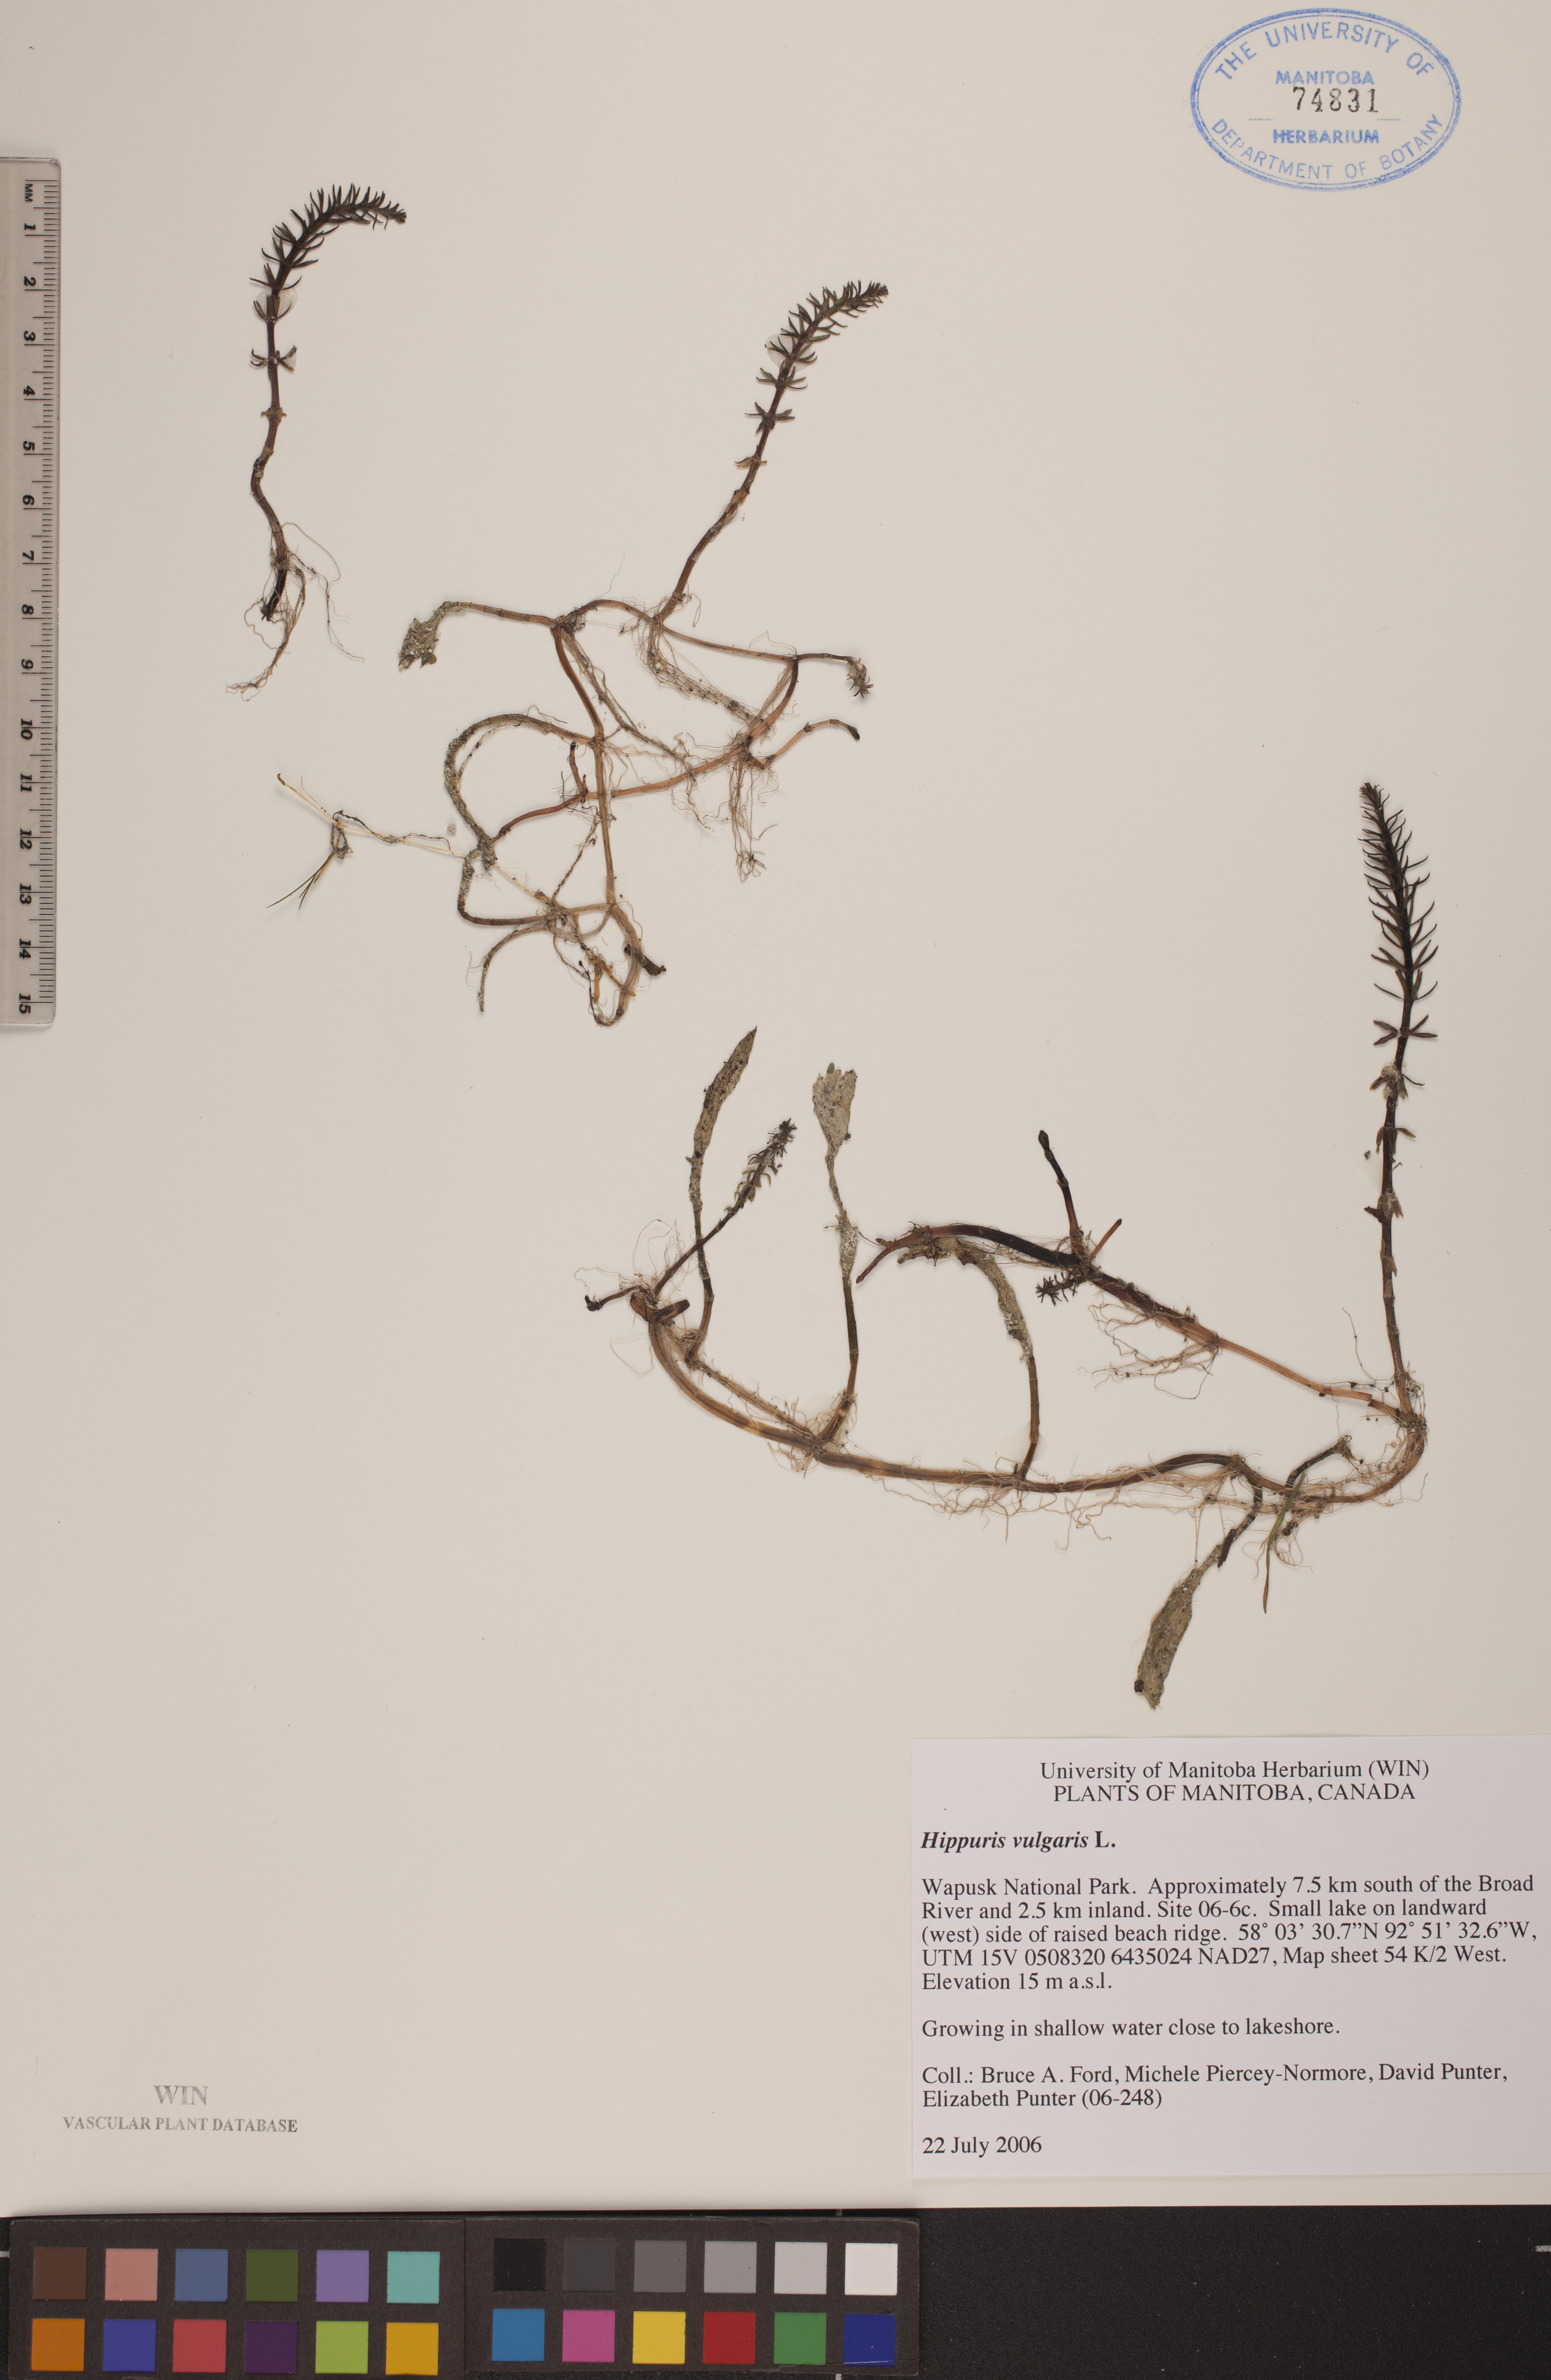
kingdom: Plantae
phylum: Tracheophyta
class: Magnoliopsida
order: Lamiales
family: Plantaginaceae
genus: Hippuris
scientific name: Hippuris vulgaris
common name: Mare's-tail
